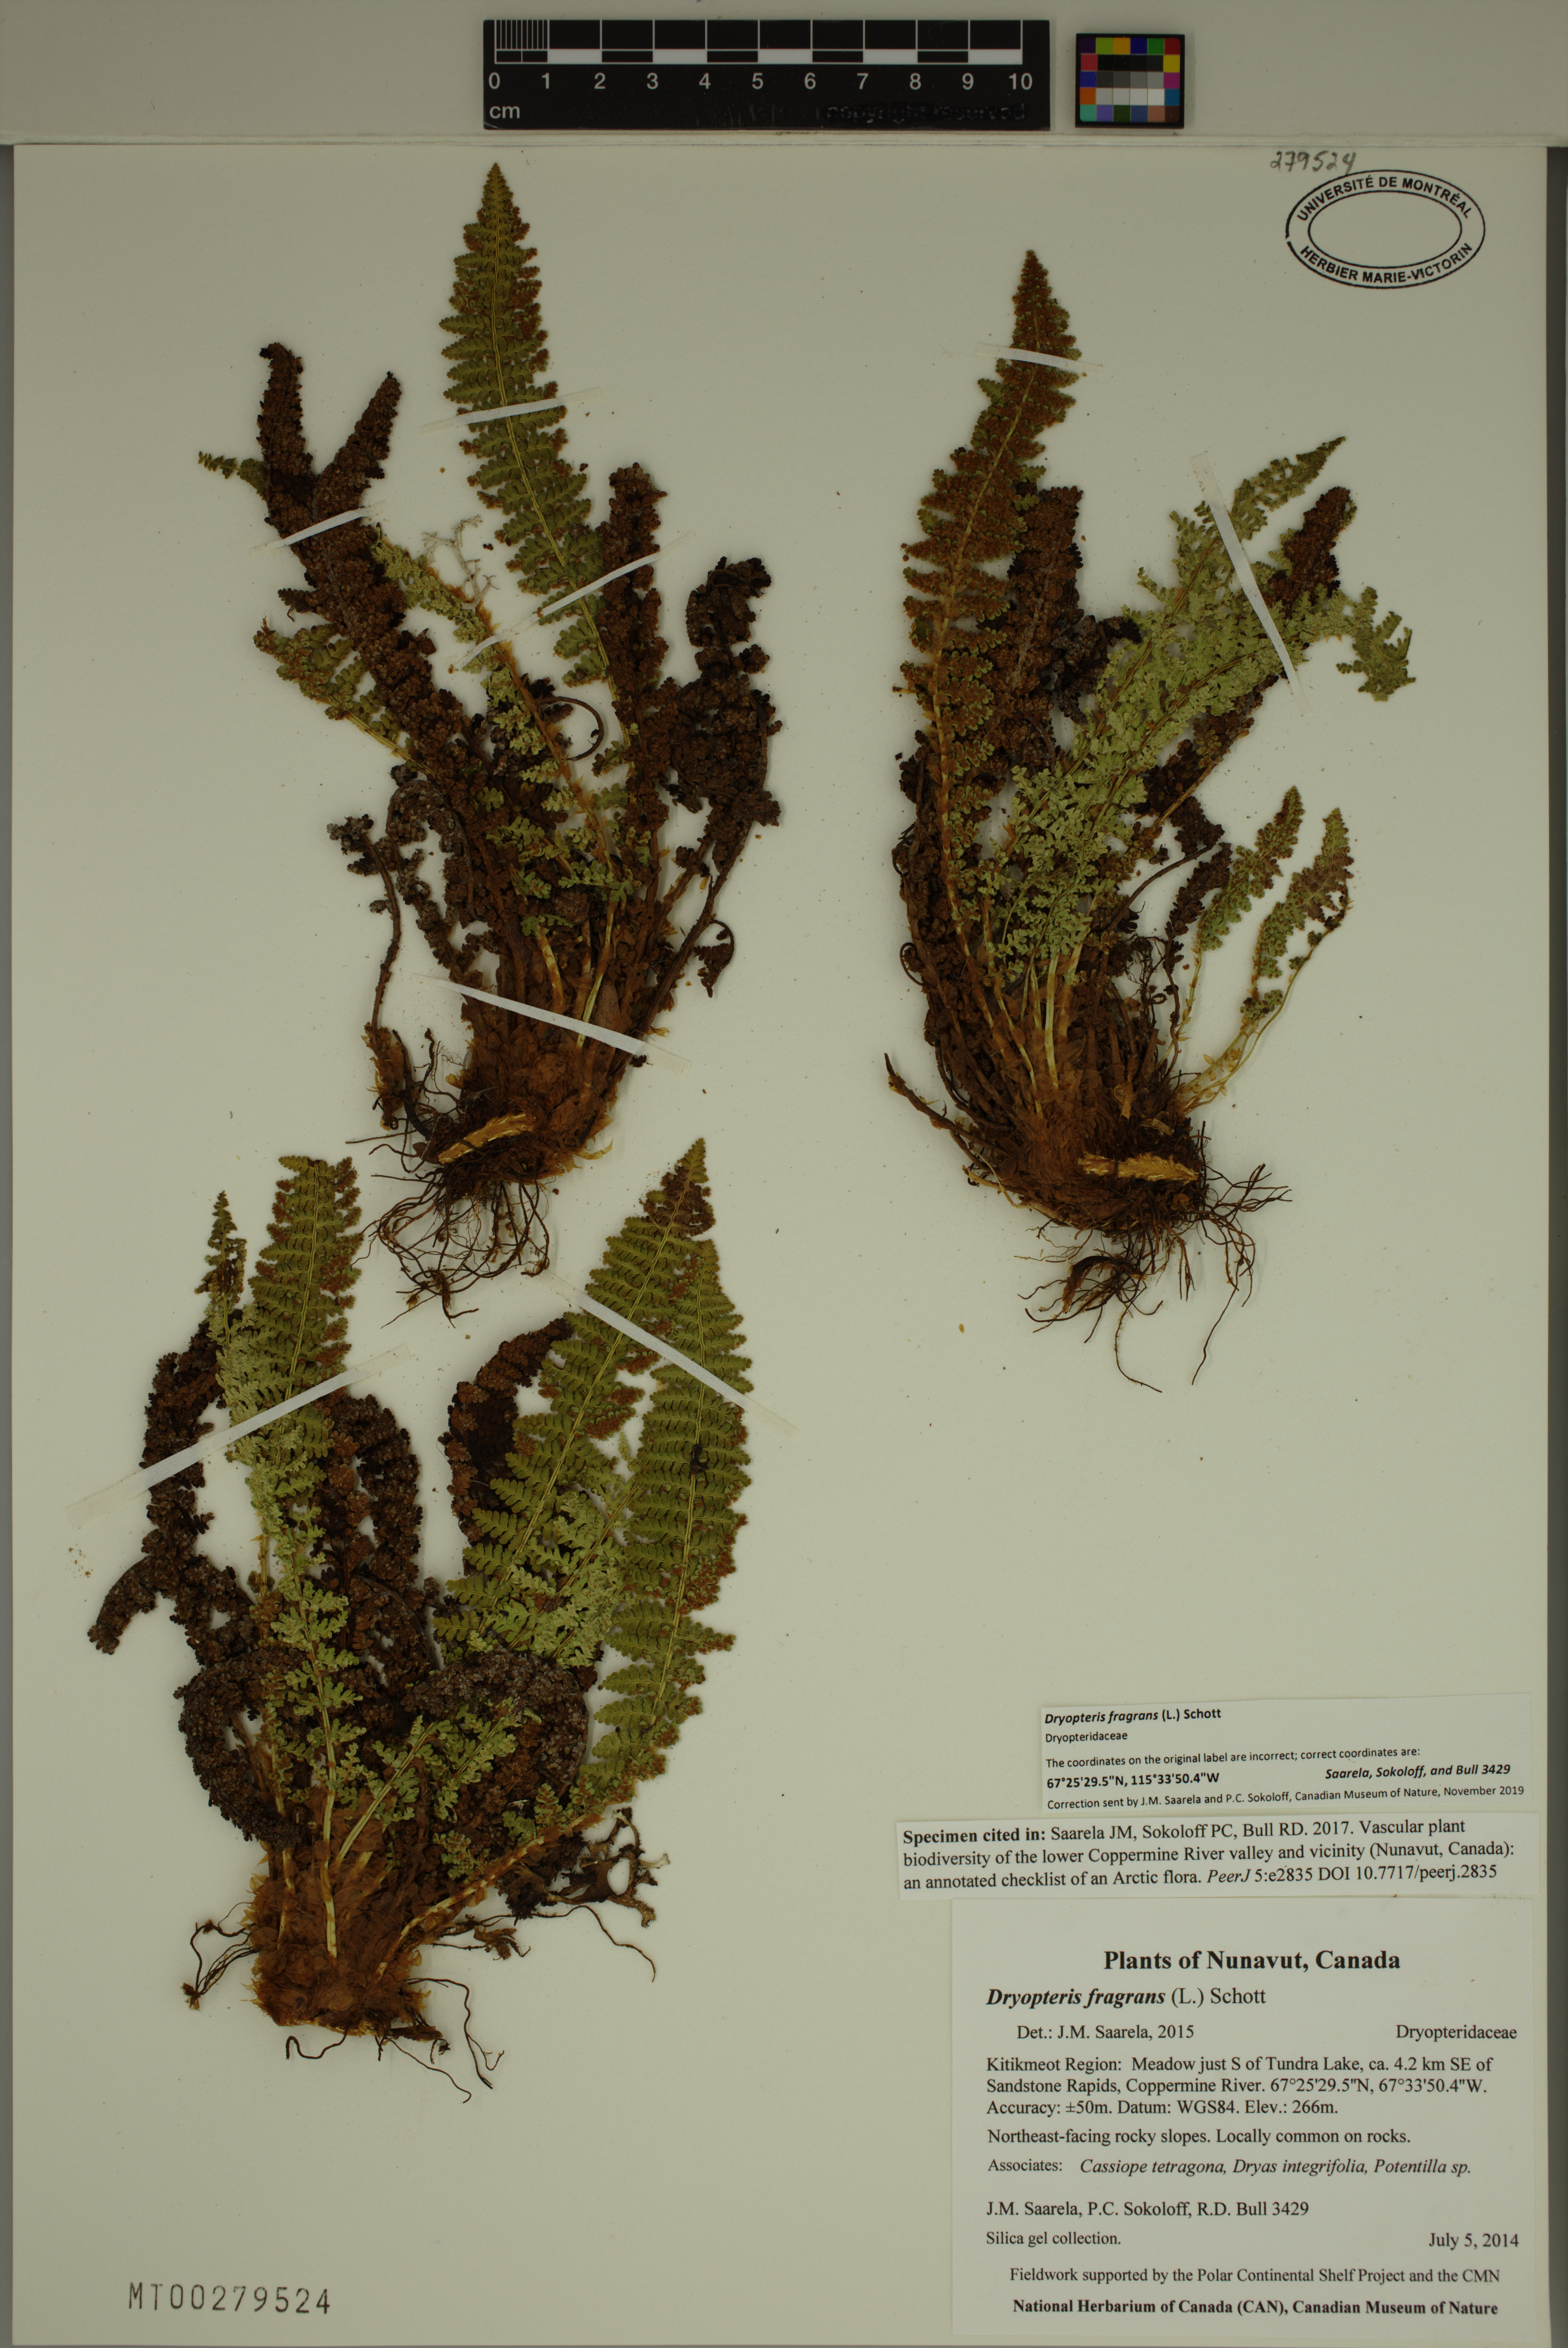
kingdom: Plantae
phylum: Tracheophyta
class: Polypodiopsida
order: Polypodiales
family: Dryopteridaceae
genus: Dryopteris
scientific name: Dryopteris fragrans
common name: Fragrant wood fern
